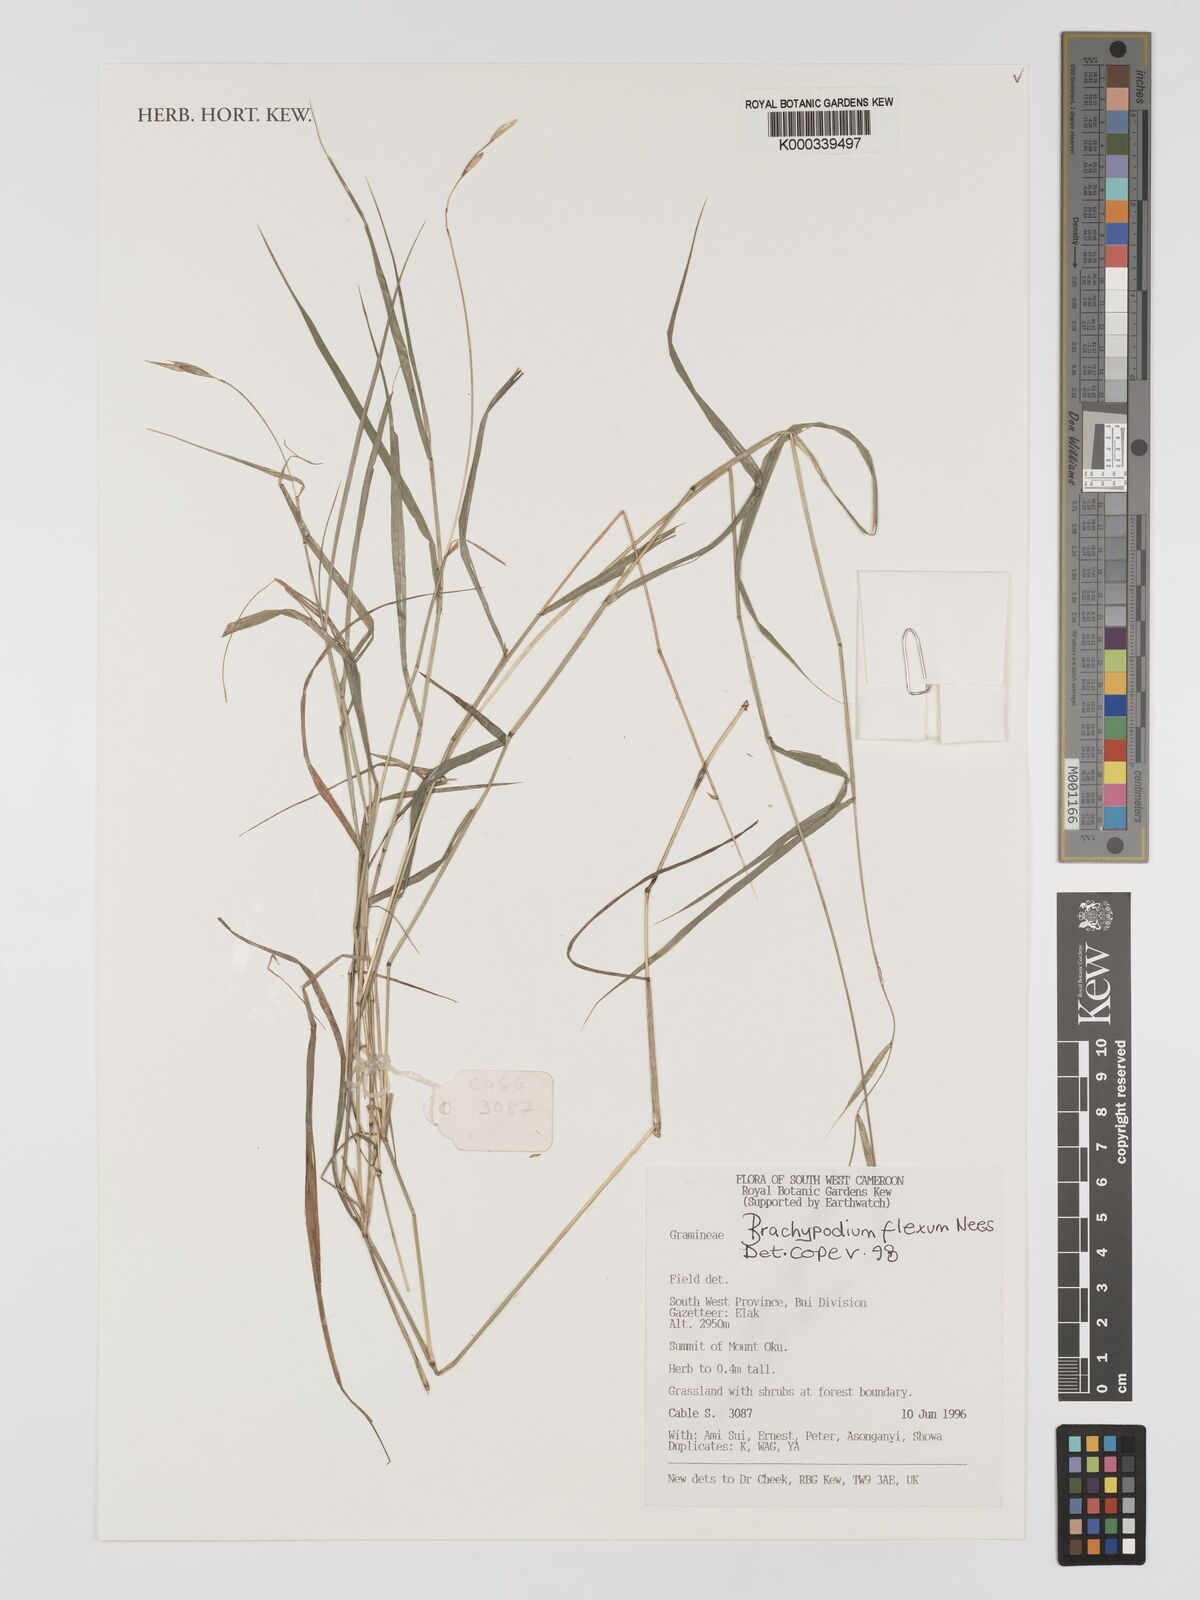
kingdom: Plantae
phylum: Tracheophyta
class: Liliopsida
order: Poales
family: Poaceae
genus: Brachypodium
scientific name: Brachypodium flexum
